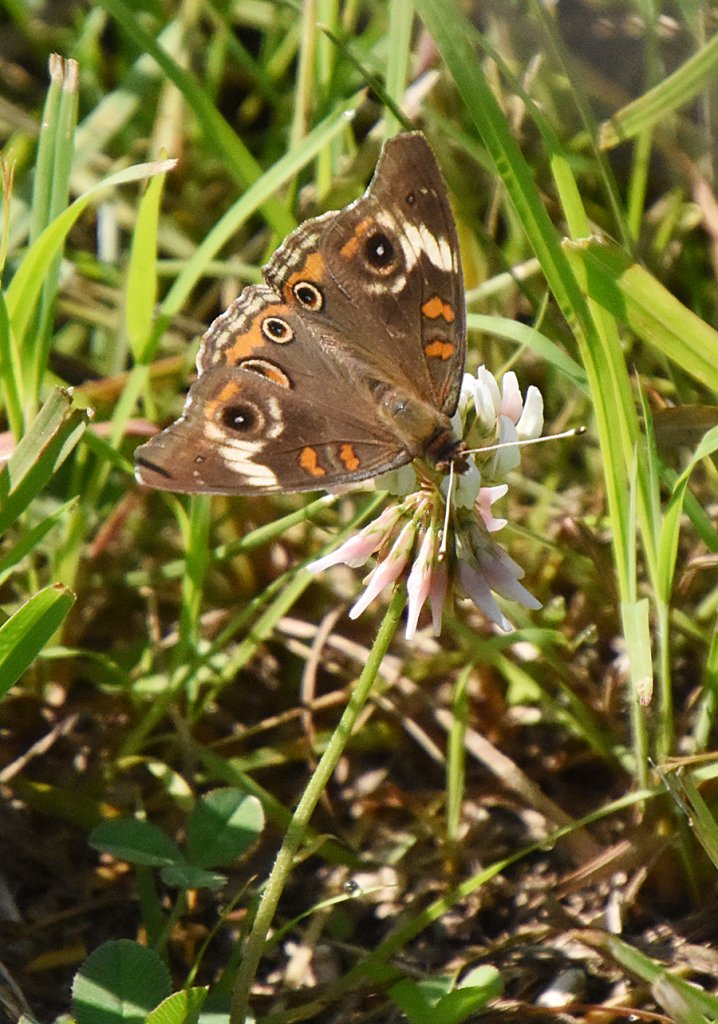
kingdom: Animalia
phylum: Arthropoda
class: Insecta
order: Lepidoptera
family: Nymphalidae
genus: Junonia
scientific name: Junonia coenia
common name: Common Buckeye
